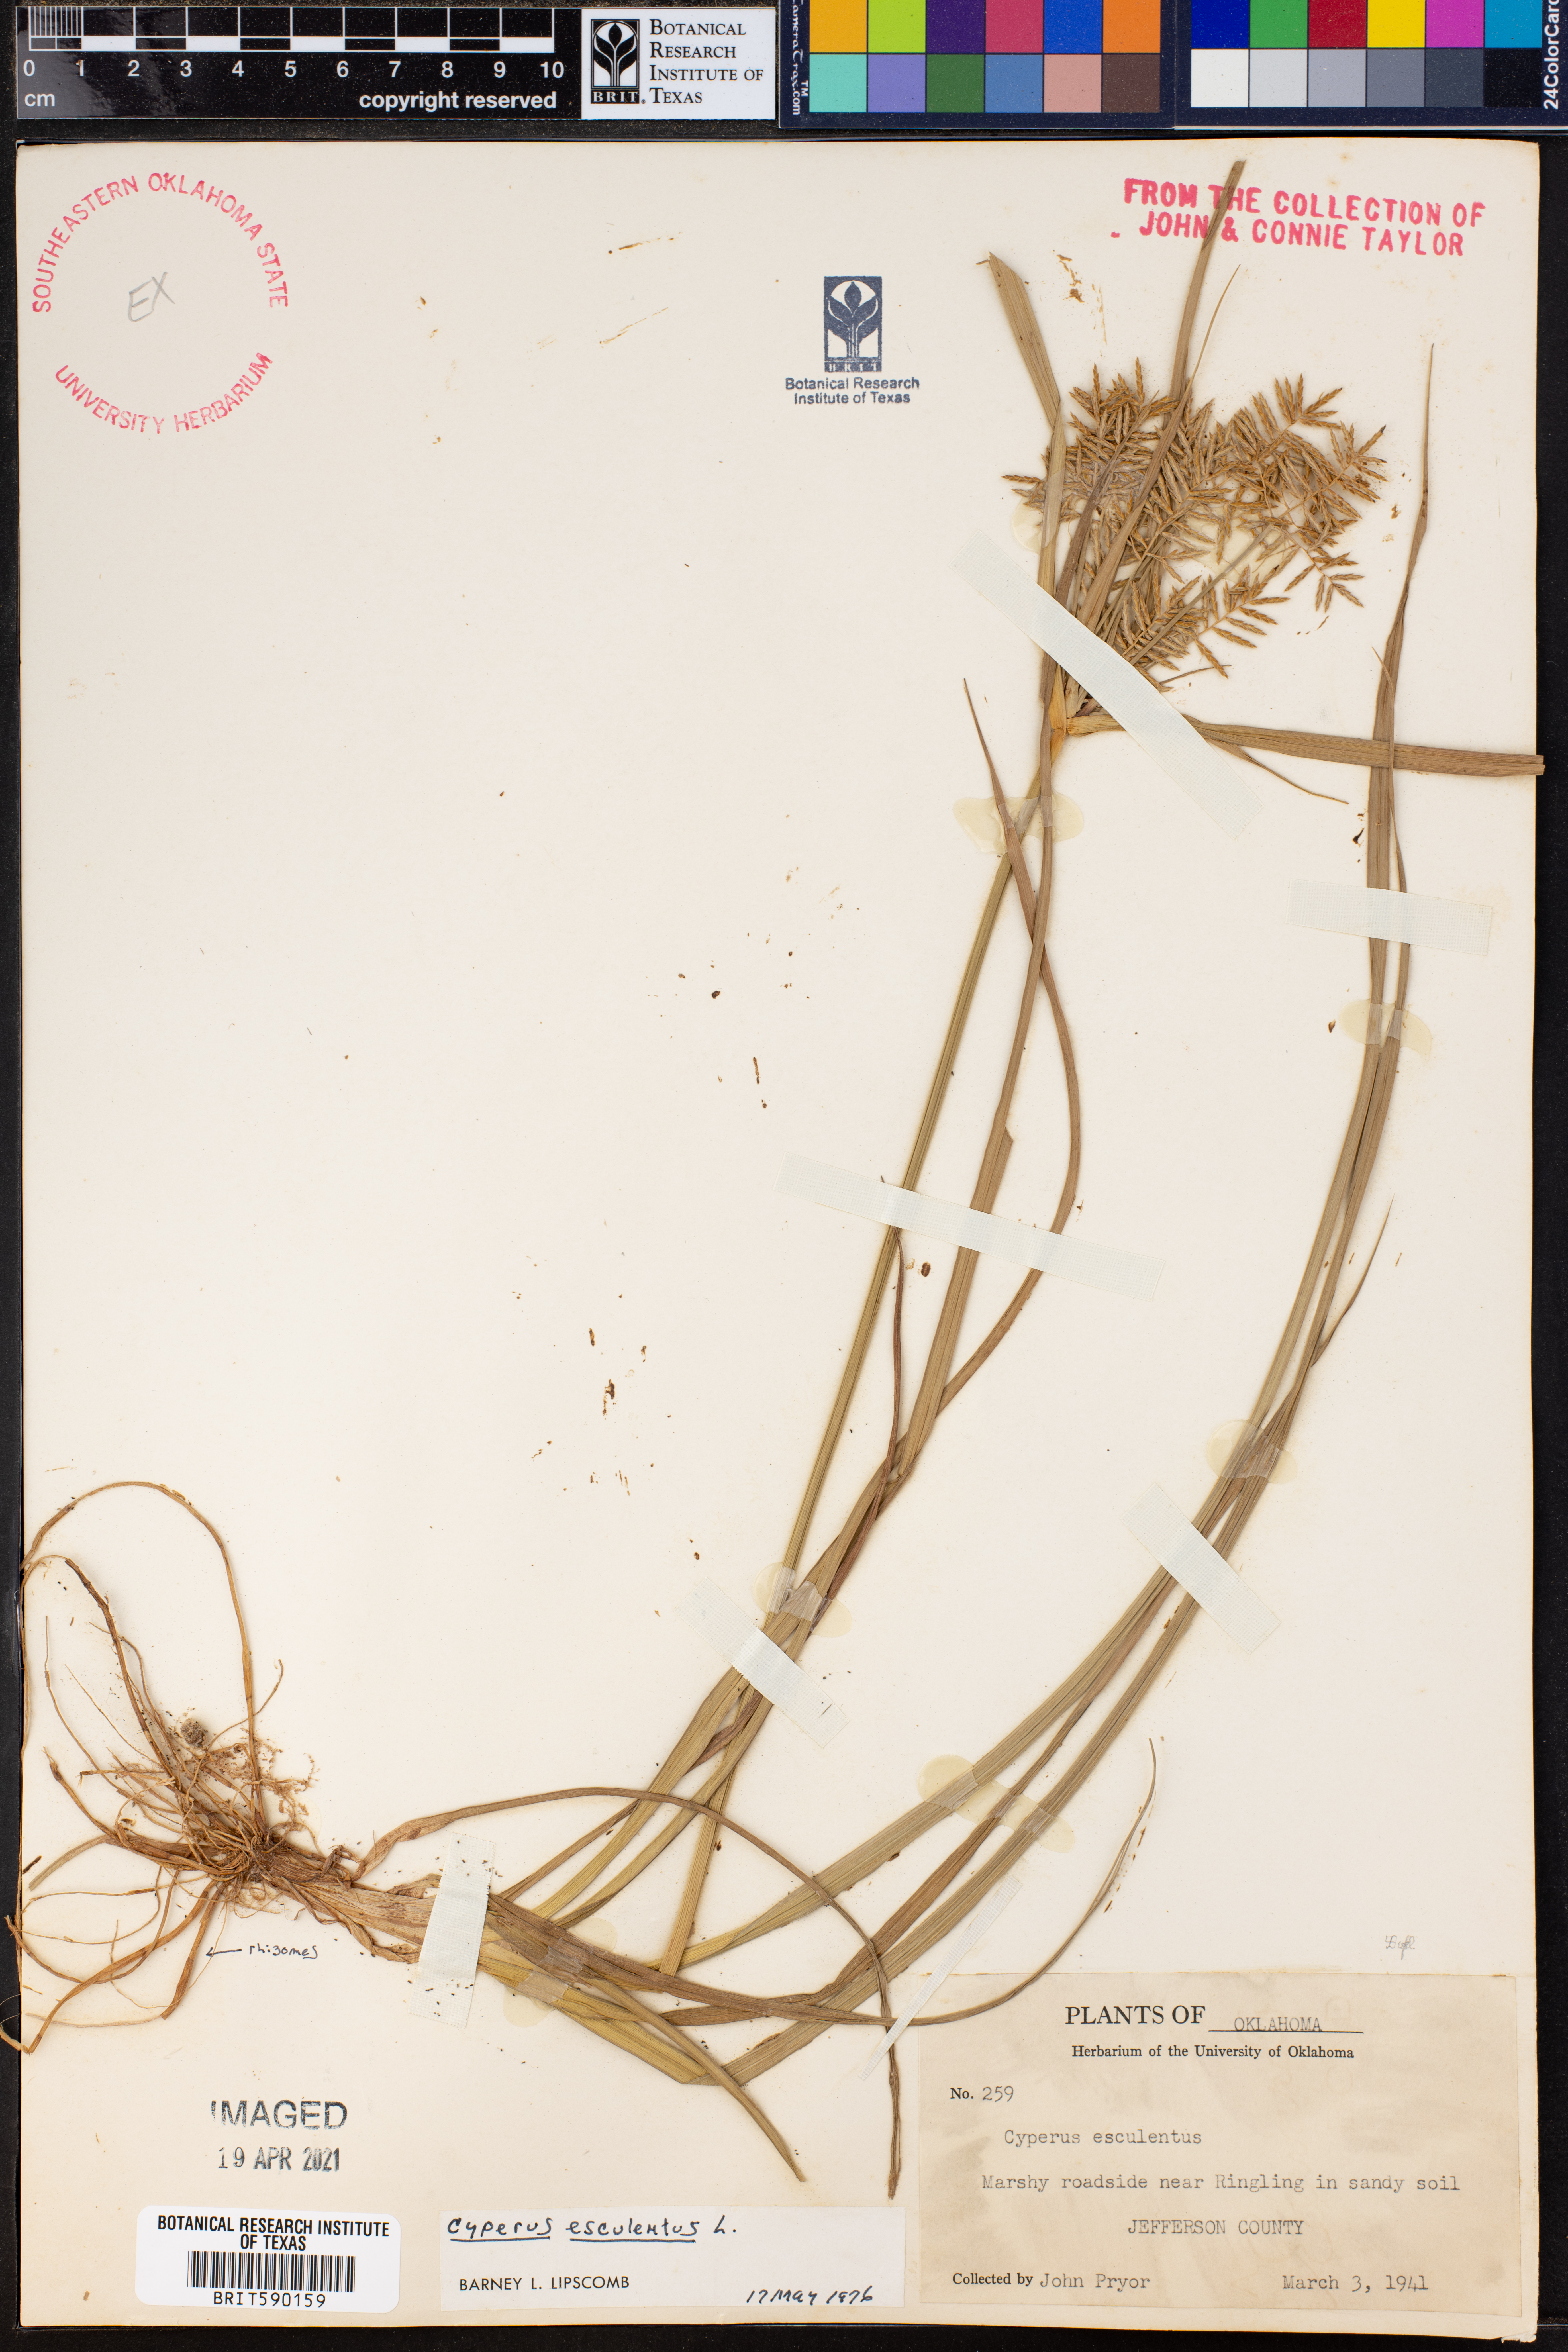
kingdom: Plantae
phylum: Tracheophyta
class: Liliopsida
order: Poales
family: Cyperaceae
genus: Cyperus
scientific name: Cyperus esculentus
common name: Yellow nutsedge
